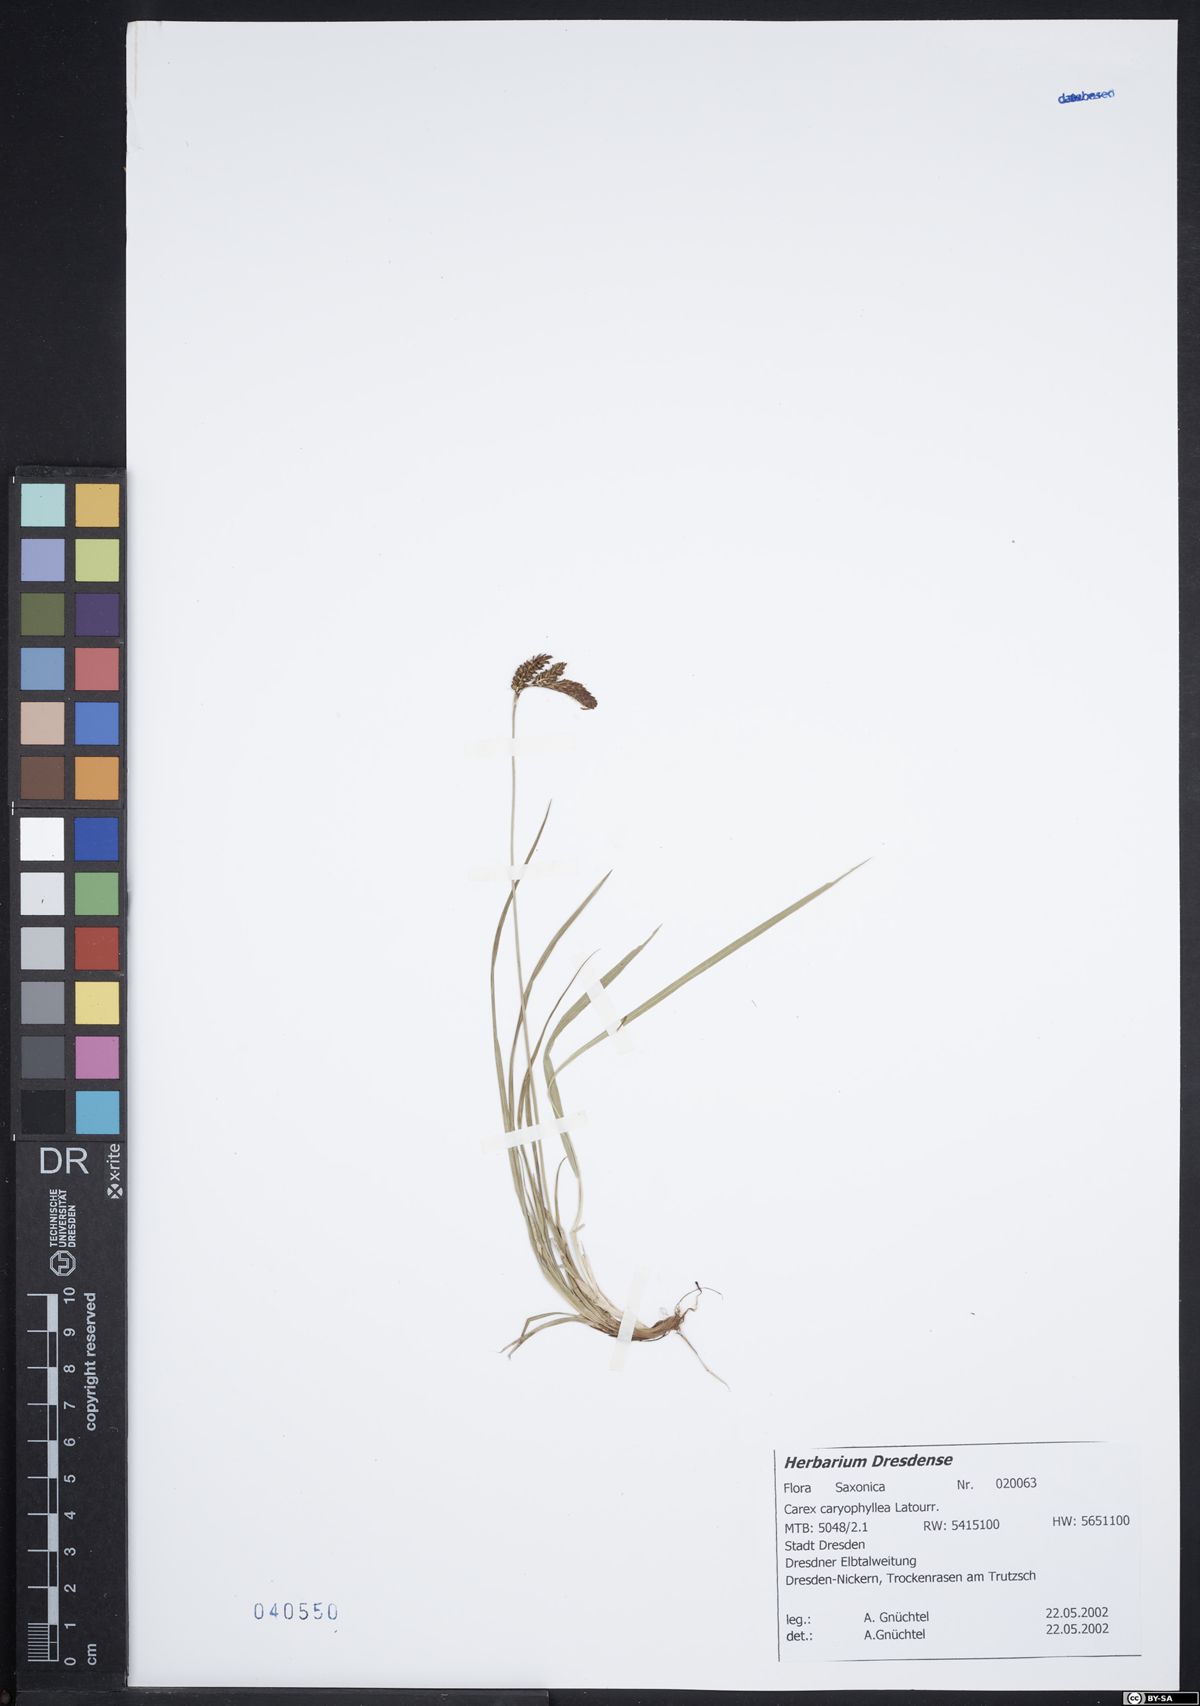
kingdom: Plantae
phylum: Tracheophyta
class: Liliopsida
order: Poales
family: Cyperaceae
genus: Carex
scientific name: Carex caryophyllea
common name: Spring sedge
